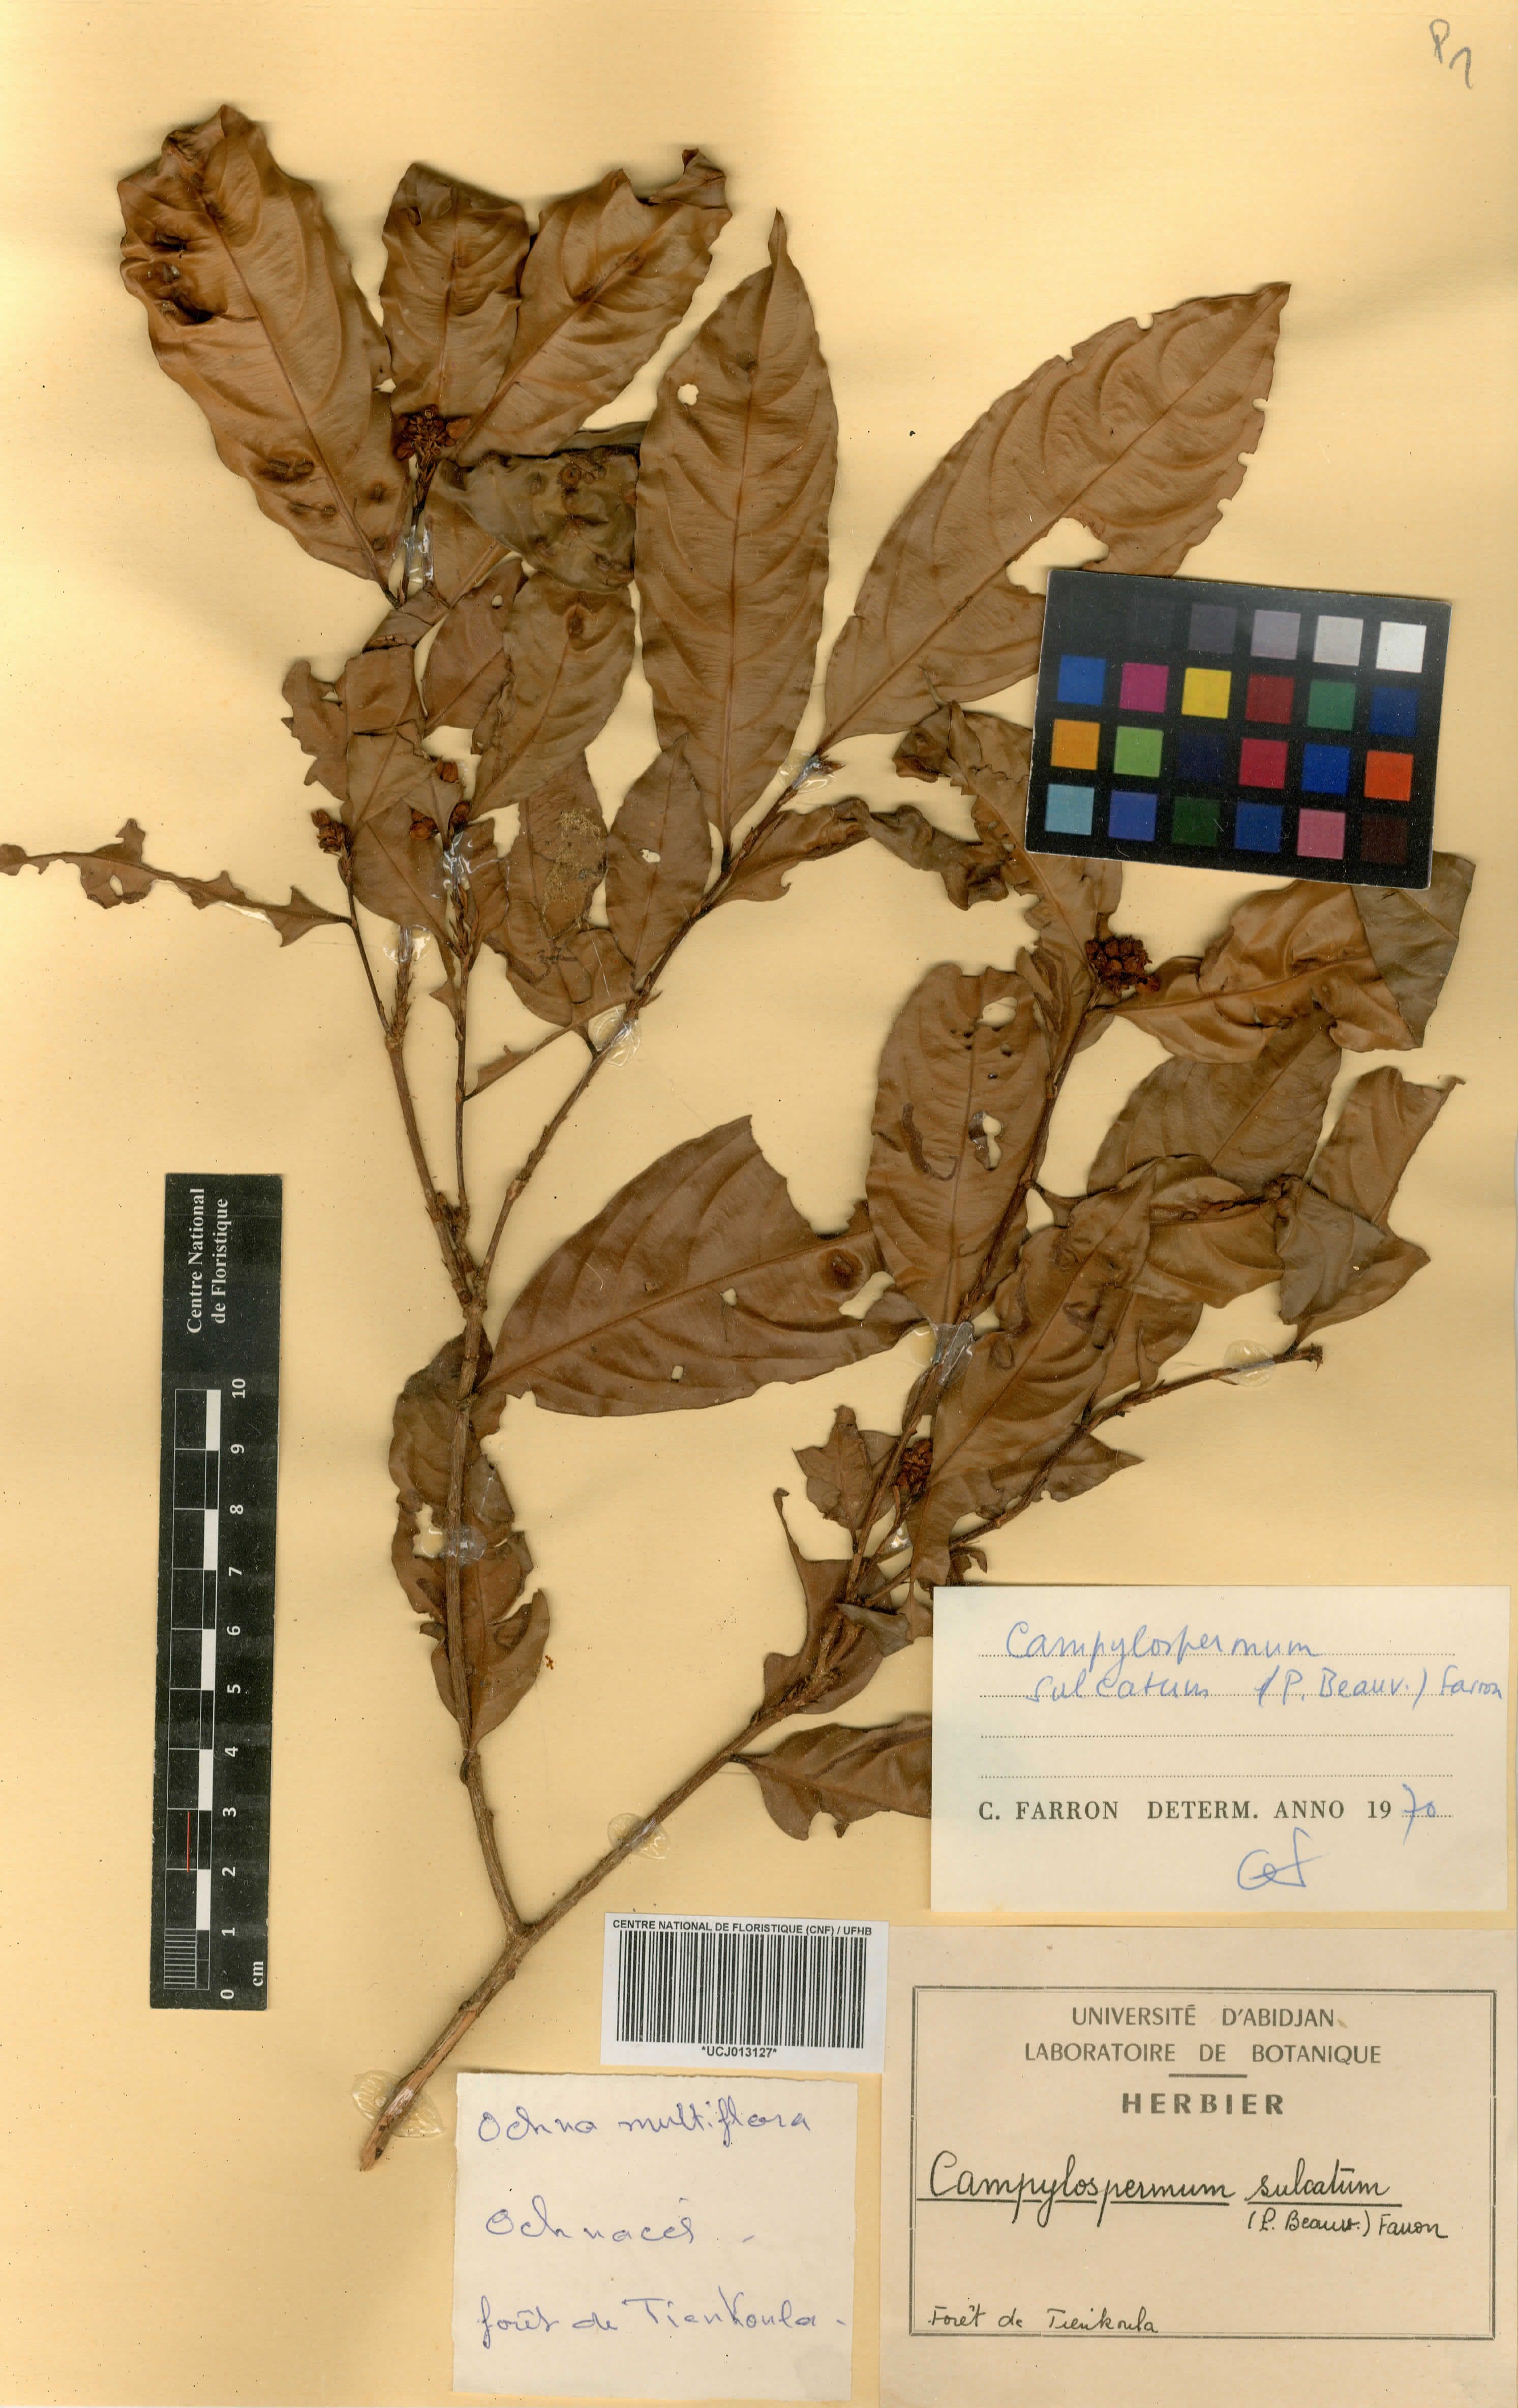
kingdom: Plantae
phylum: Tracheophyta
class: Magnoliopsida
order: Malpighiales
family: Ochnaceae
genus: Campylospermum
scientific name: Campylospermum sulcatum
